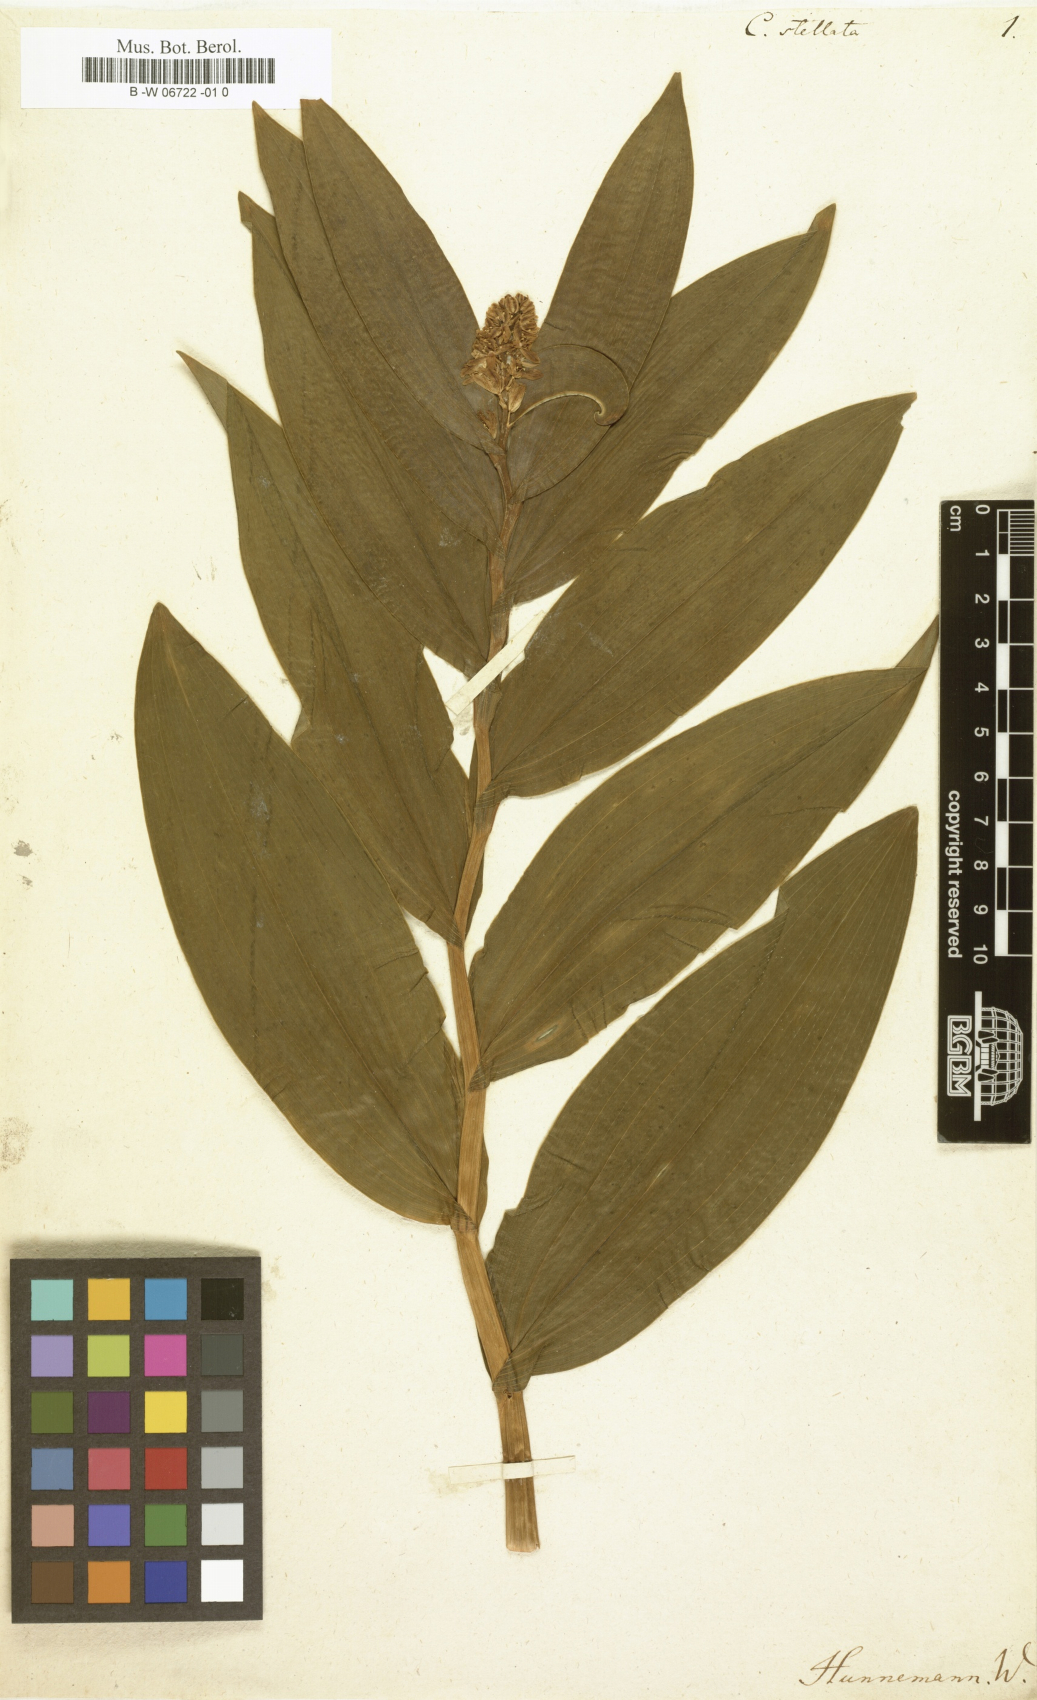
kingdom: Plantae
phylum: Tracheophyta
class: Liliopsida
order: Asparagales
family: Asparagaceae
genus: Maianthemum
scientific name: Maianthemum stellatum
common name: Little false solomon's seal
